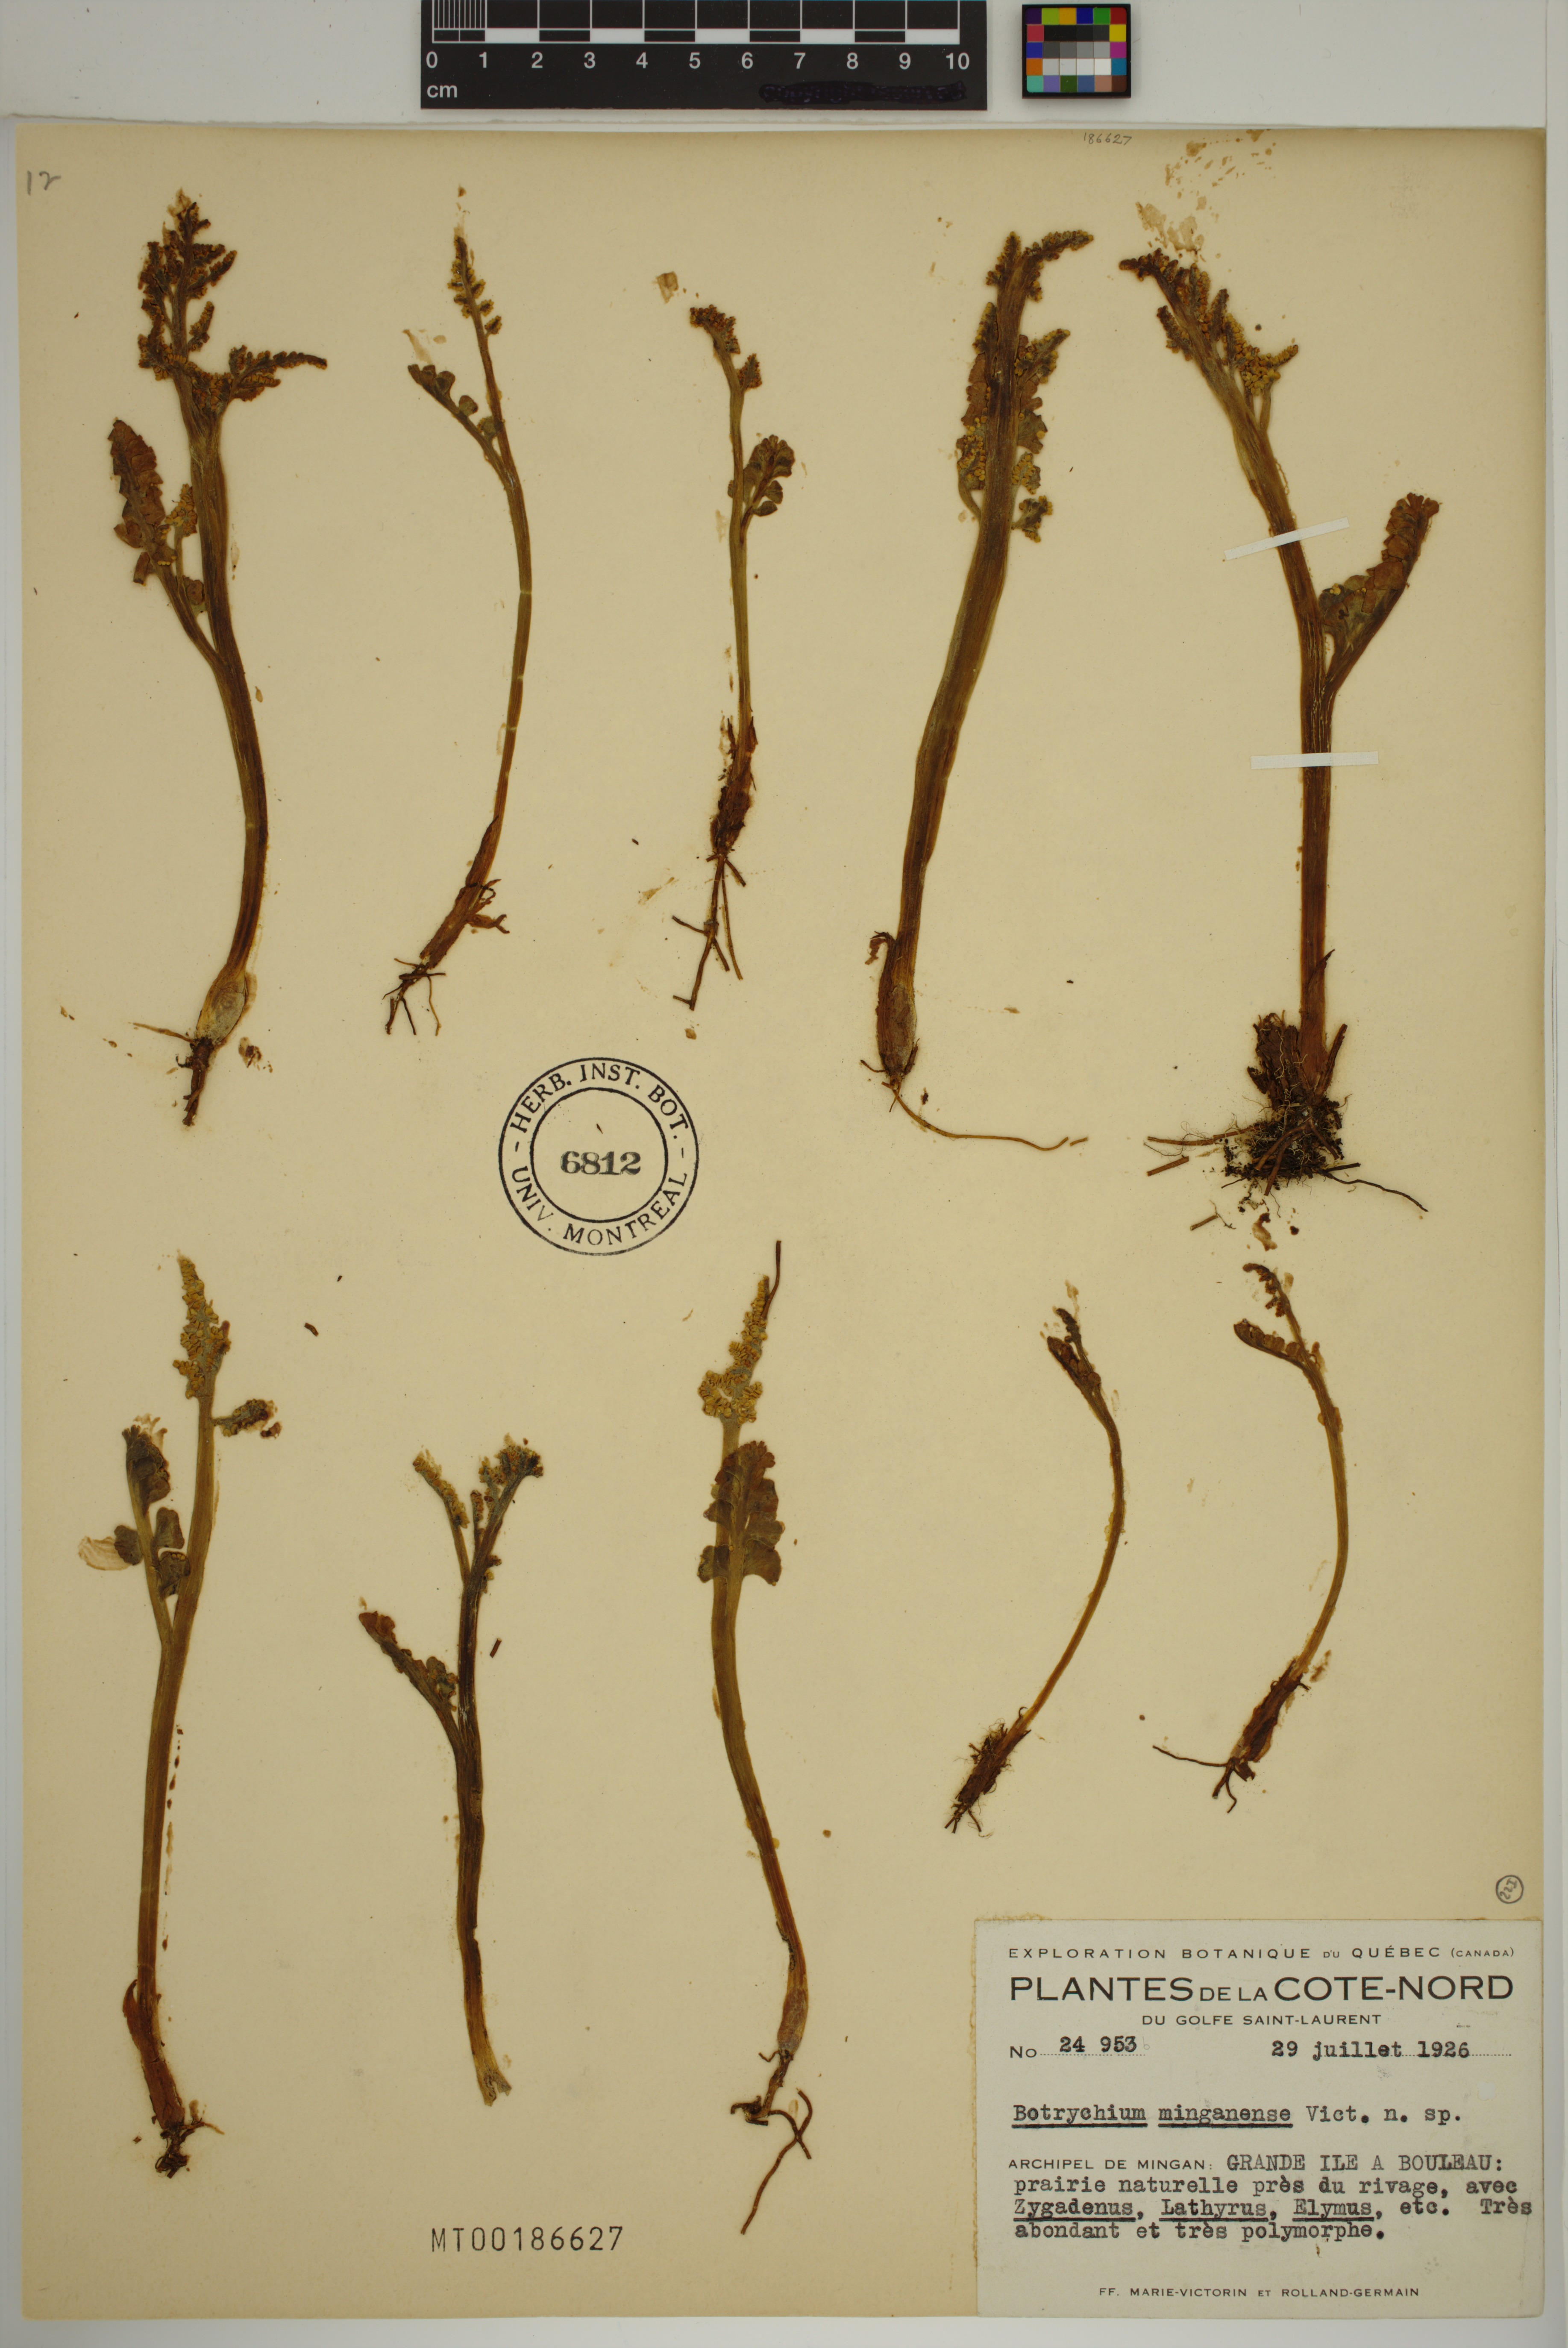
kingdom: Plantae
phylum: Tracheophyta
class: Polypodiopsida
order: Ophioglossales
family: Ophioglossaceae
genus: Botrychium
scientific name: Botrychium minganense
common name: Mingan grapefern
